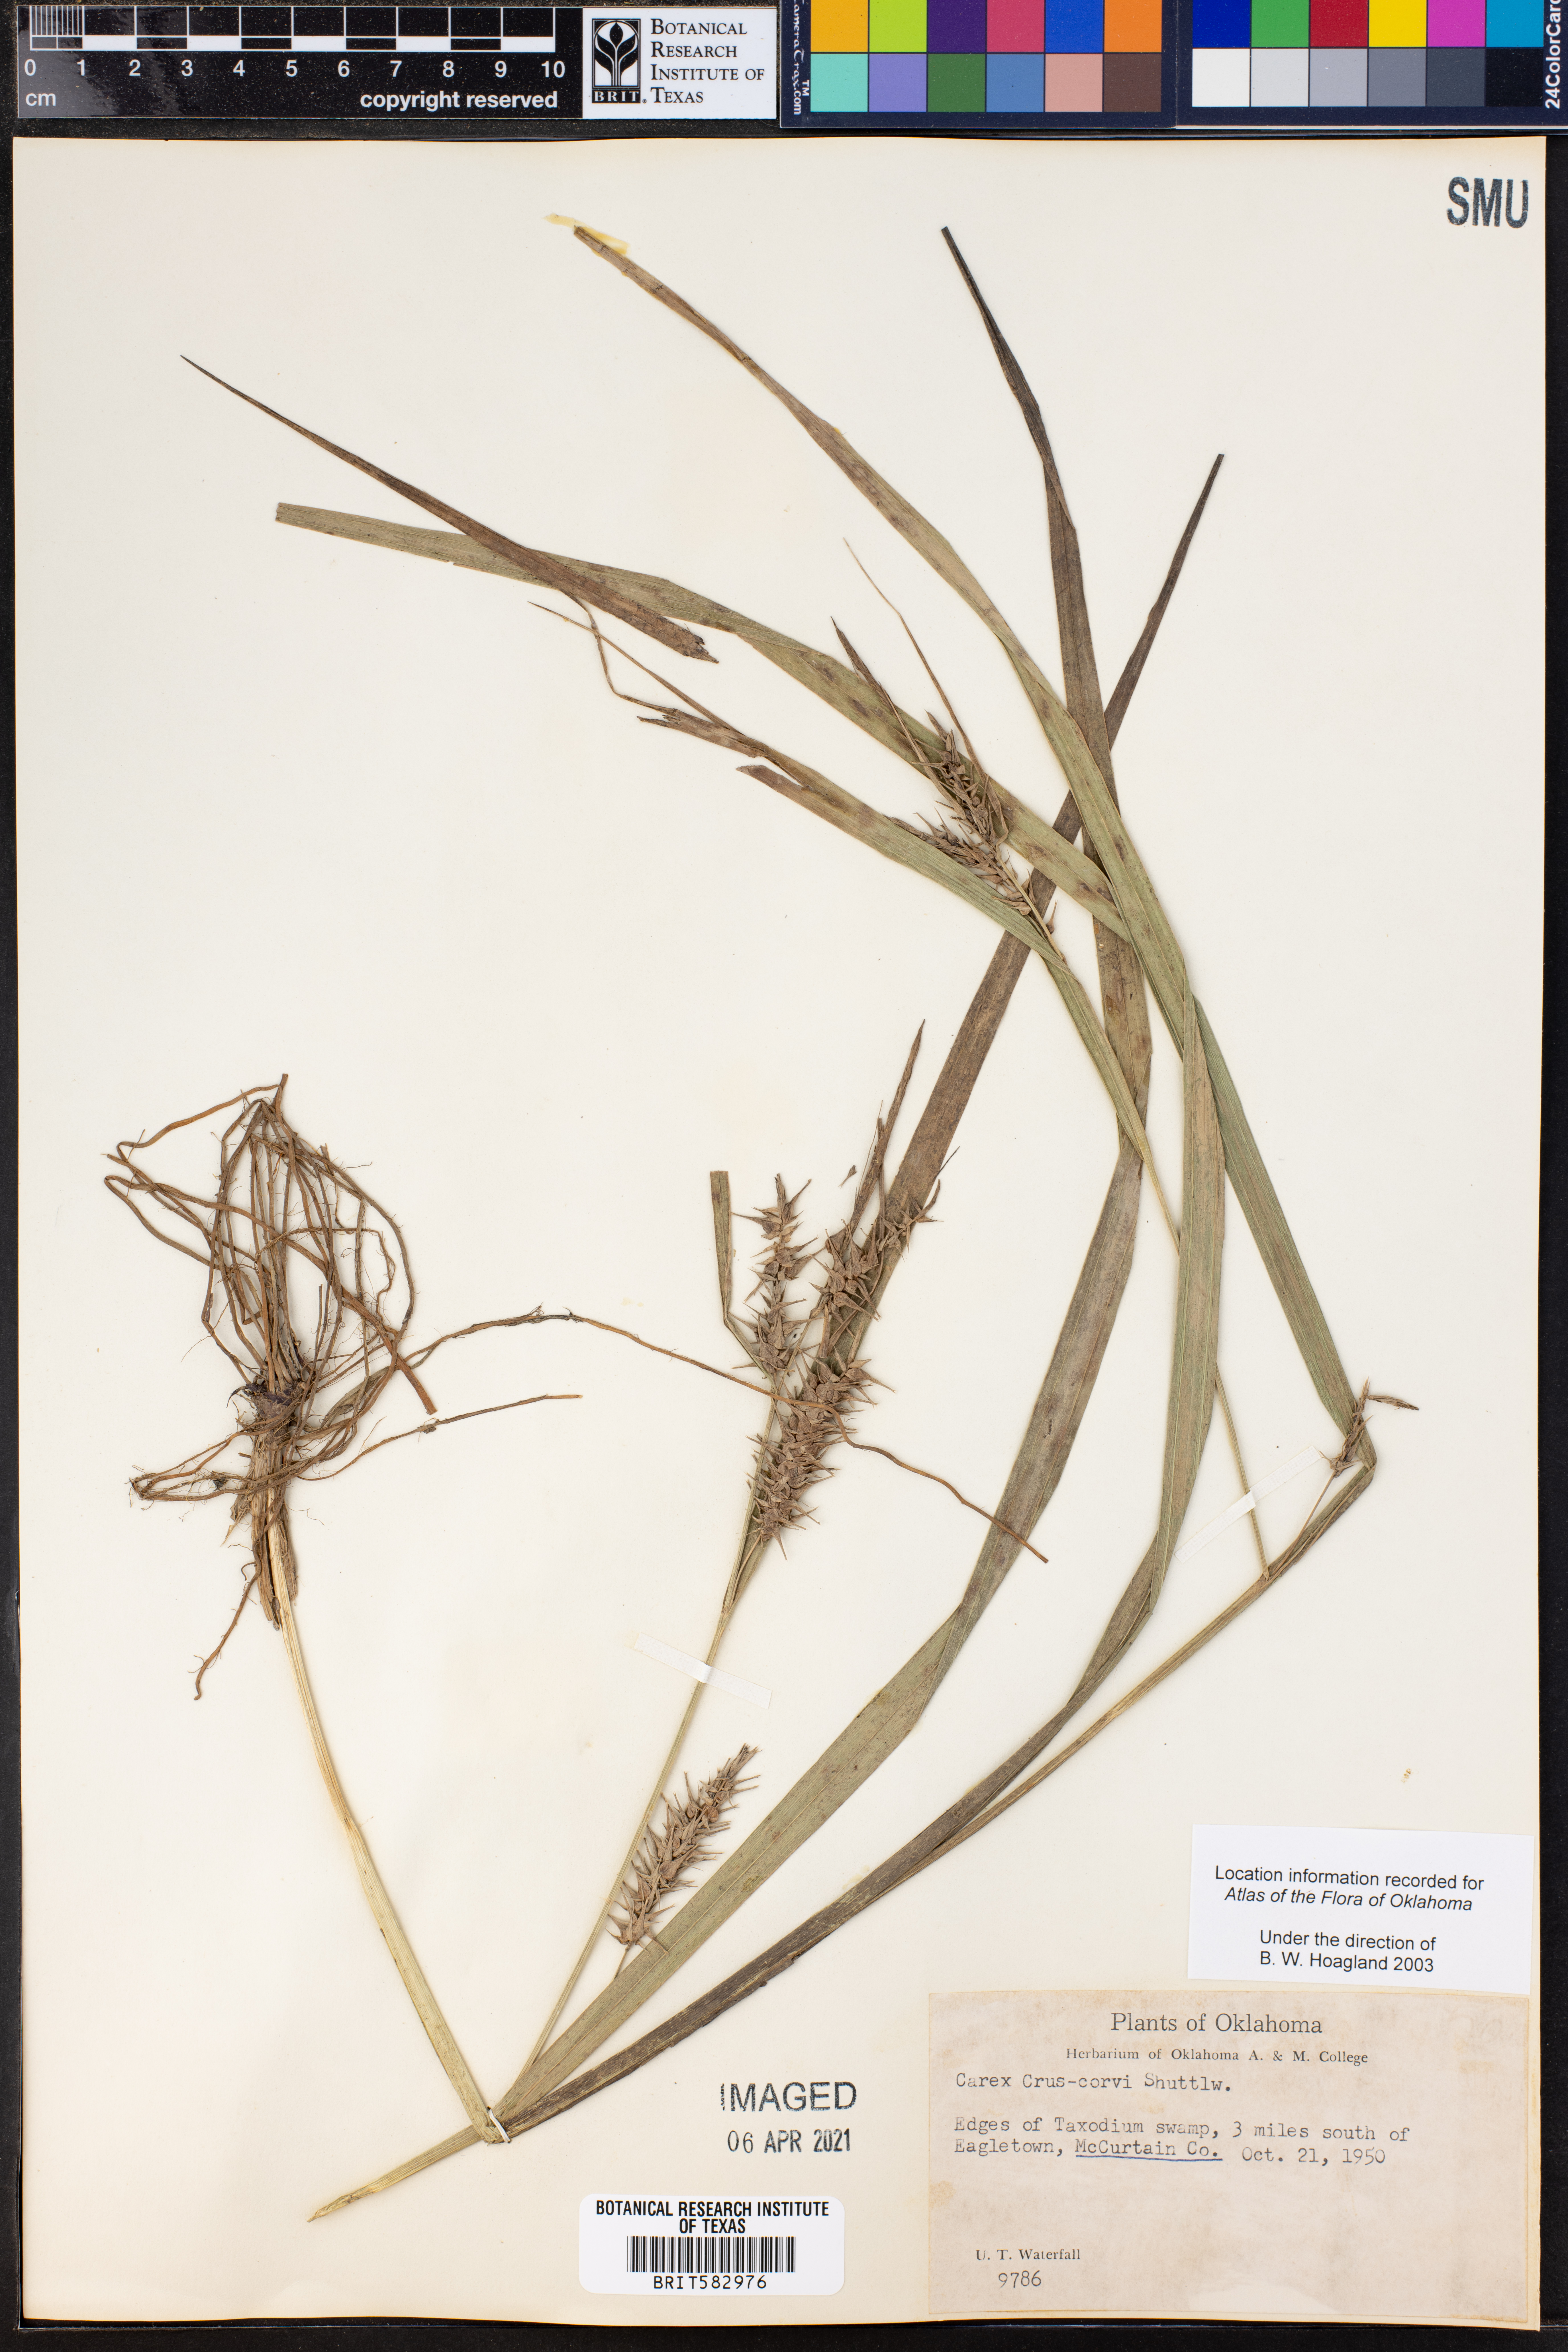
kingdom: Plantae
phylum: Tracheophyta
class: Liliopsida
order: Poales
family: Cyperaceae
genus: Carex
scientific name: Carex crus-corvi
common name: Crow-spur sedge
